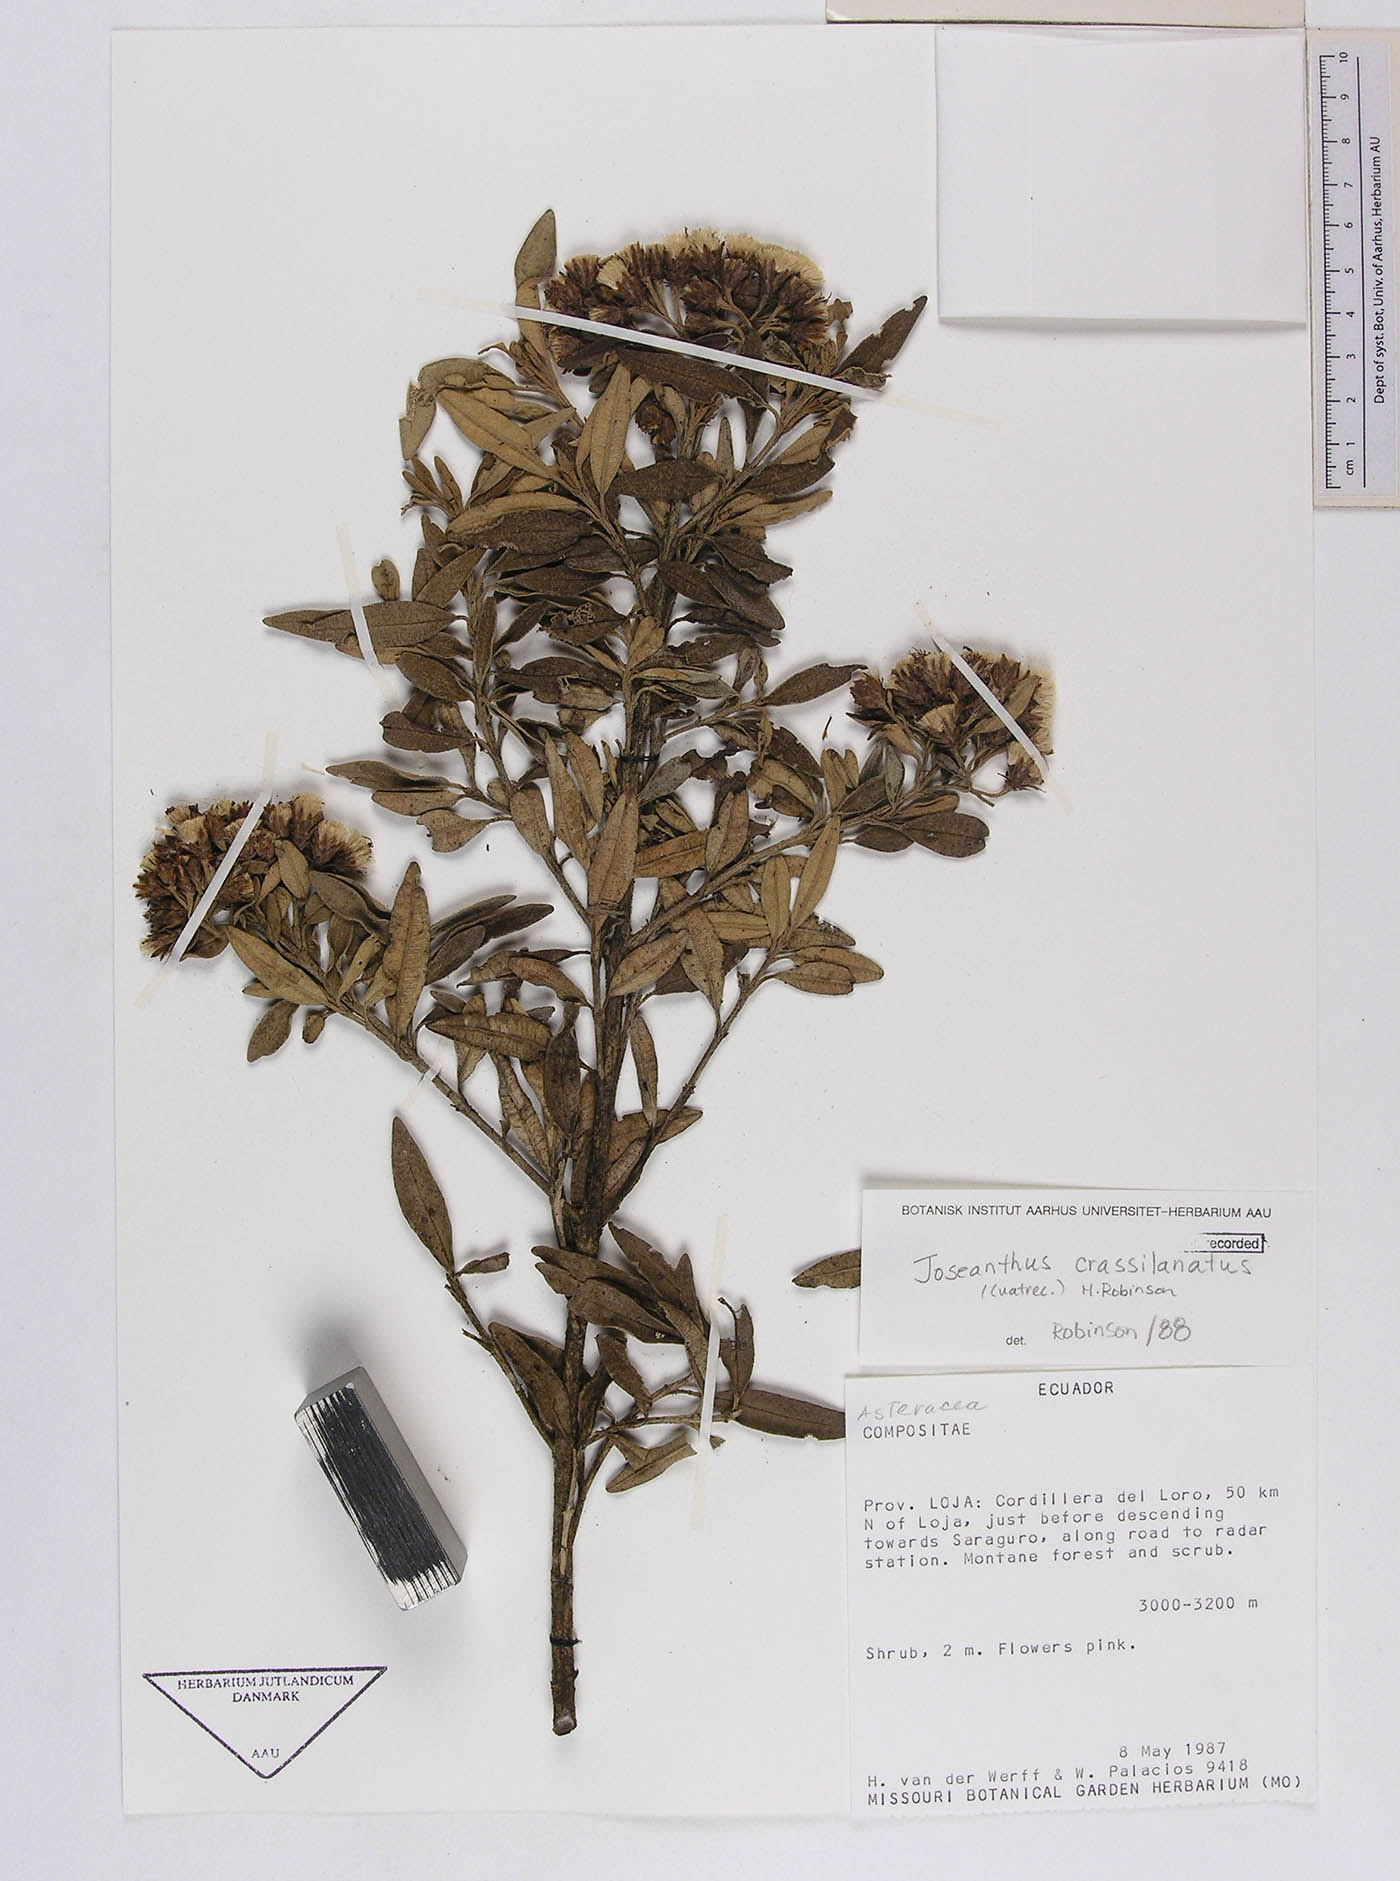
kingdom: Plantae
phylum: Tracheophyta
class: Magnoliopsida
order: Asterales
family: Asteraceae
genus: Joseanthus
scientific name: Joseanthus chimborazensis
